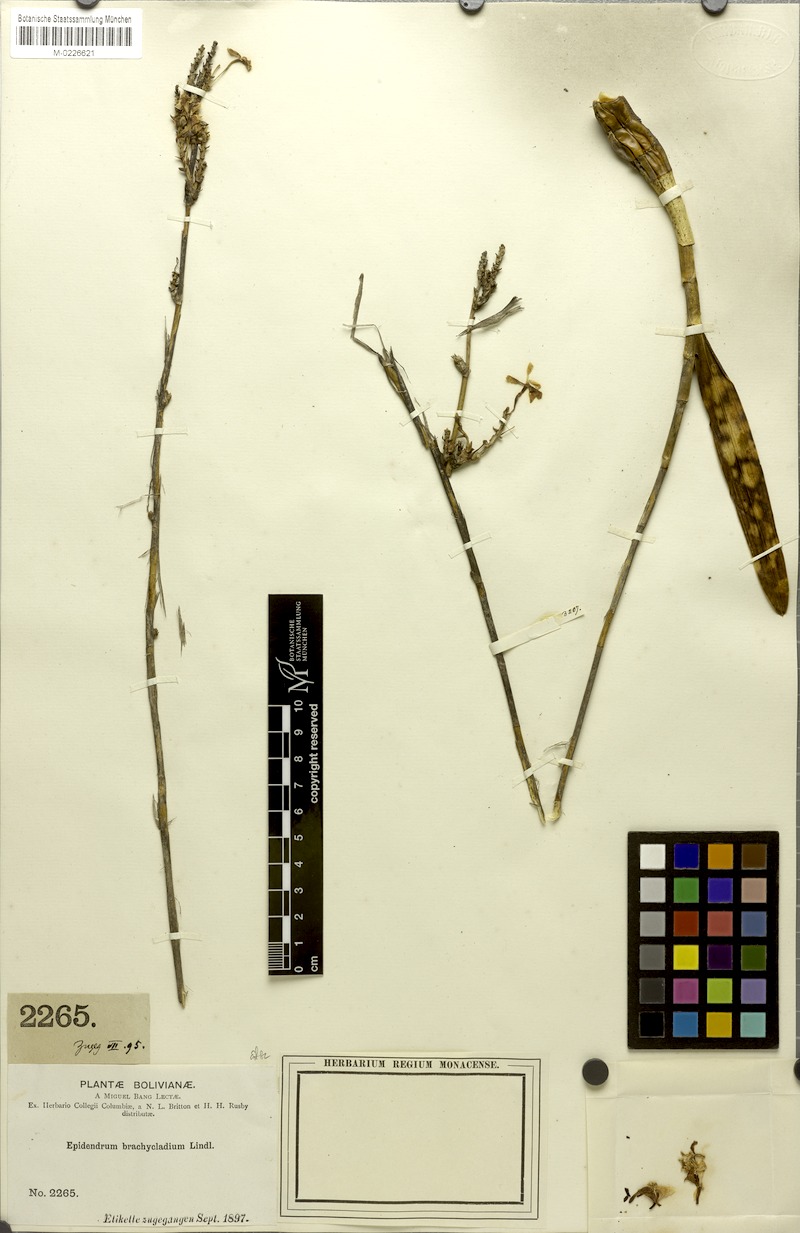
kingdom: Plantae
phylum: Tracheophyta
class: Liliopsida
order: Asparagales
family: Orchidaceae
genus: Epidendrum
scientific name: Epidendrum blepharistes
